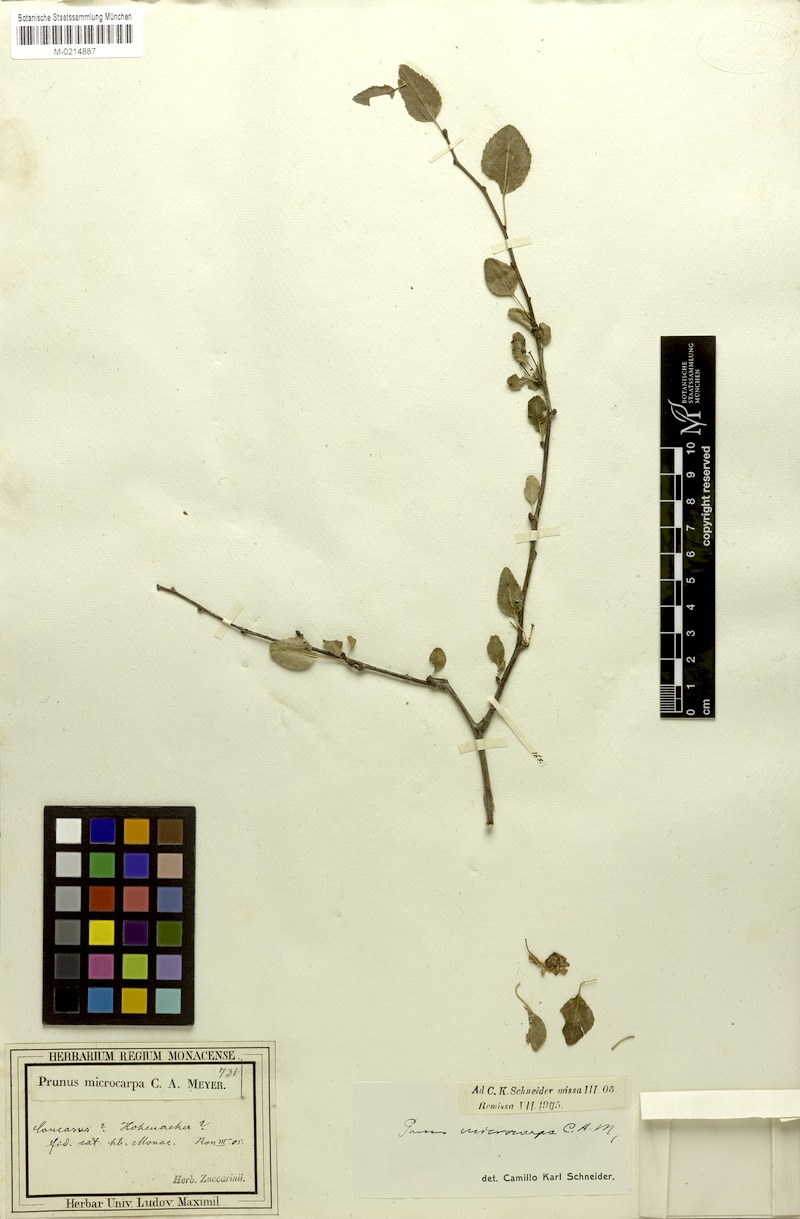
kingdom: Plantae
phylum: Tracheophyta
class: Magnoliopsida
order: Rosales
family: Rosaceae
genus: Prunus
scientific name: Prunus microcarpa
